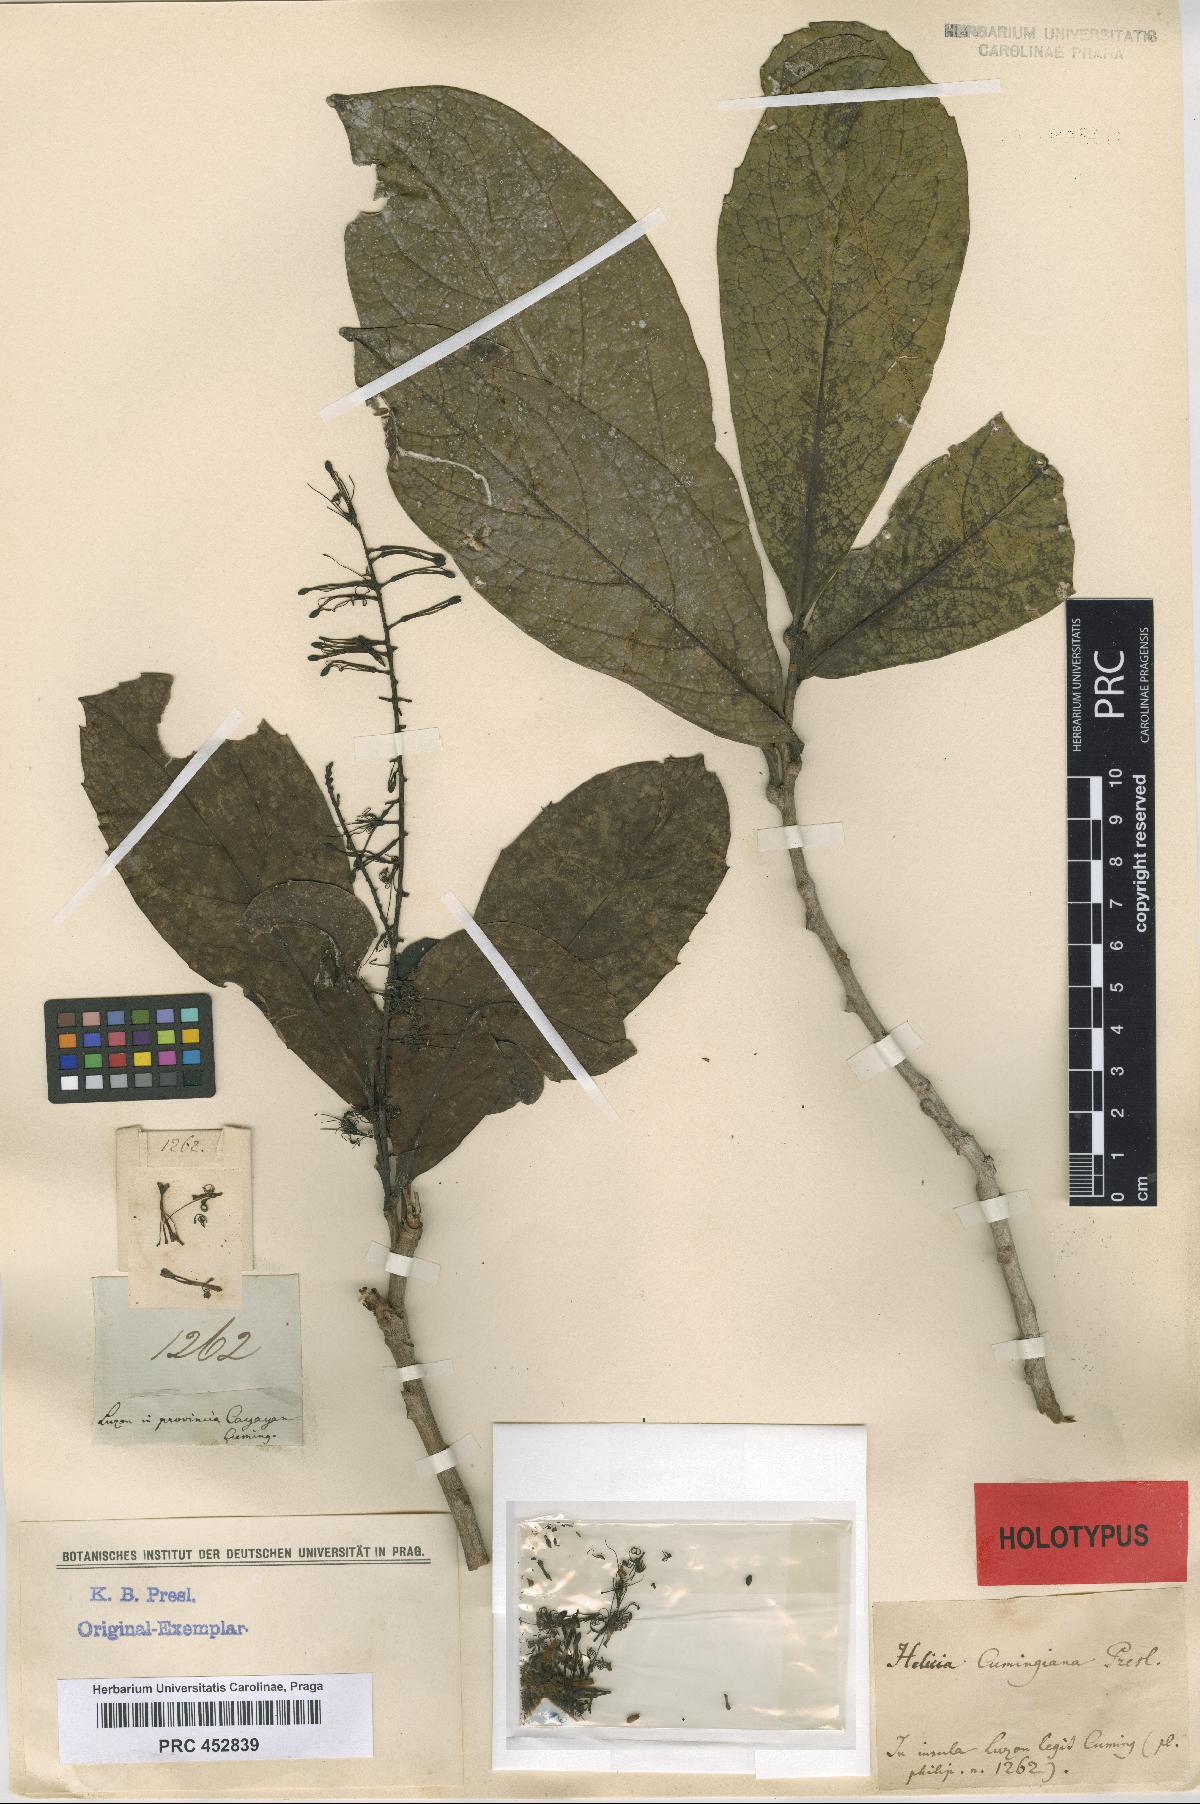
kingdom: Plantae
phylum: Tracheophyta
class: Magnoliopsida
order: Proteales
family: Proteaceae
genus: Helicia
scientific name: Helicia robusta
